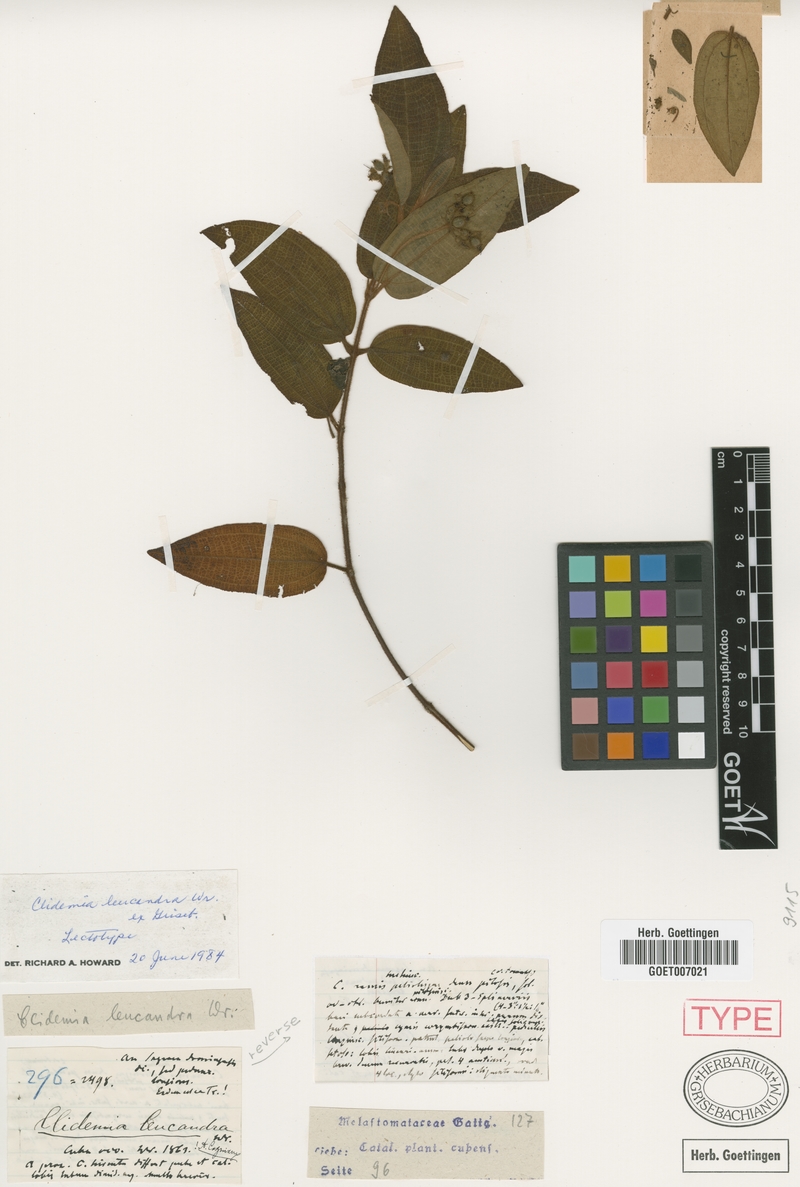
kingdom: Plantae
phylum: Tracheophyta
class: Magnoliopsida
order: Myrtales
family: Melastomataceae
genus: Miconia
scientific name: Miconia leucandra
